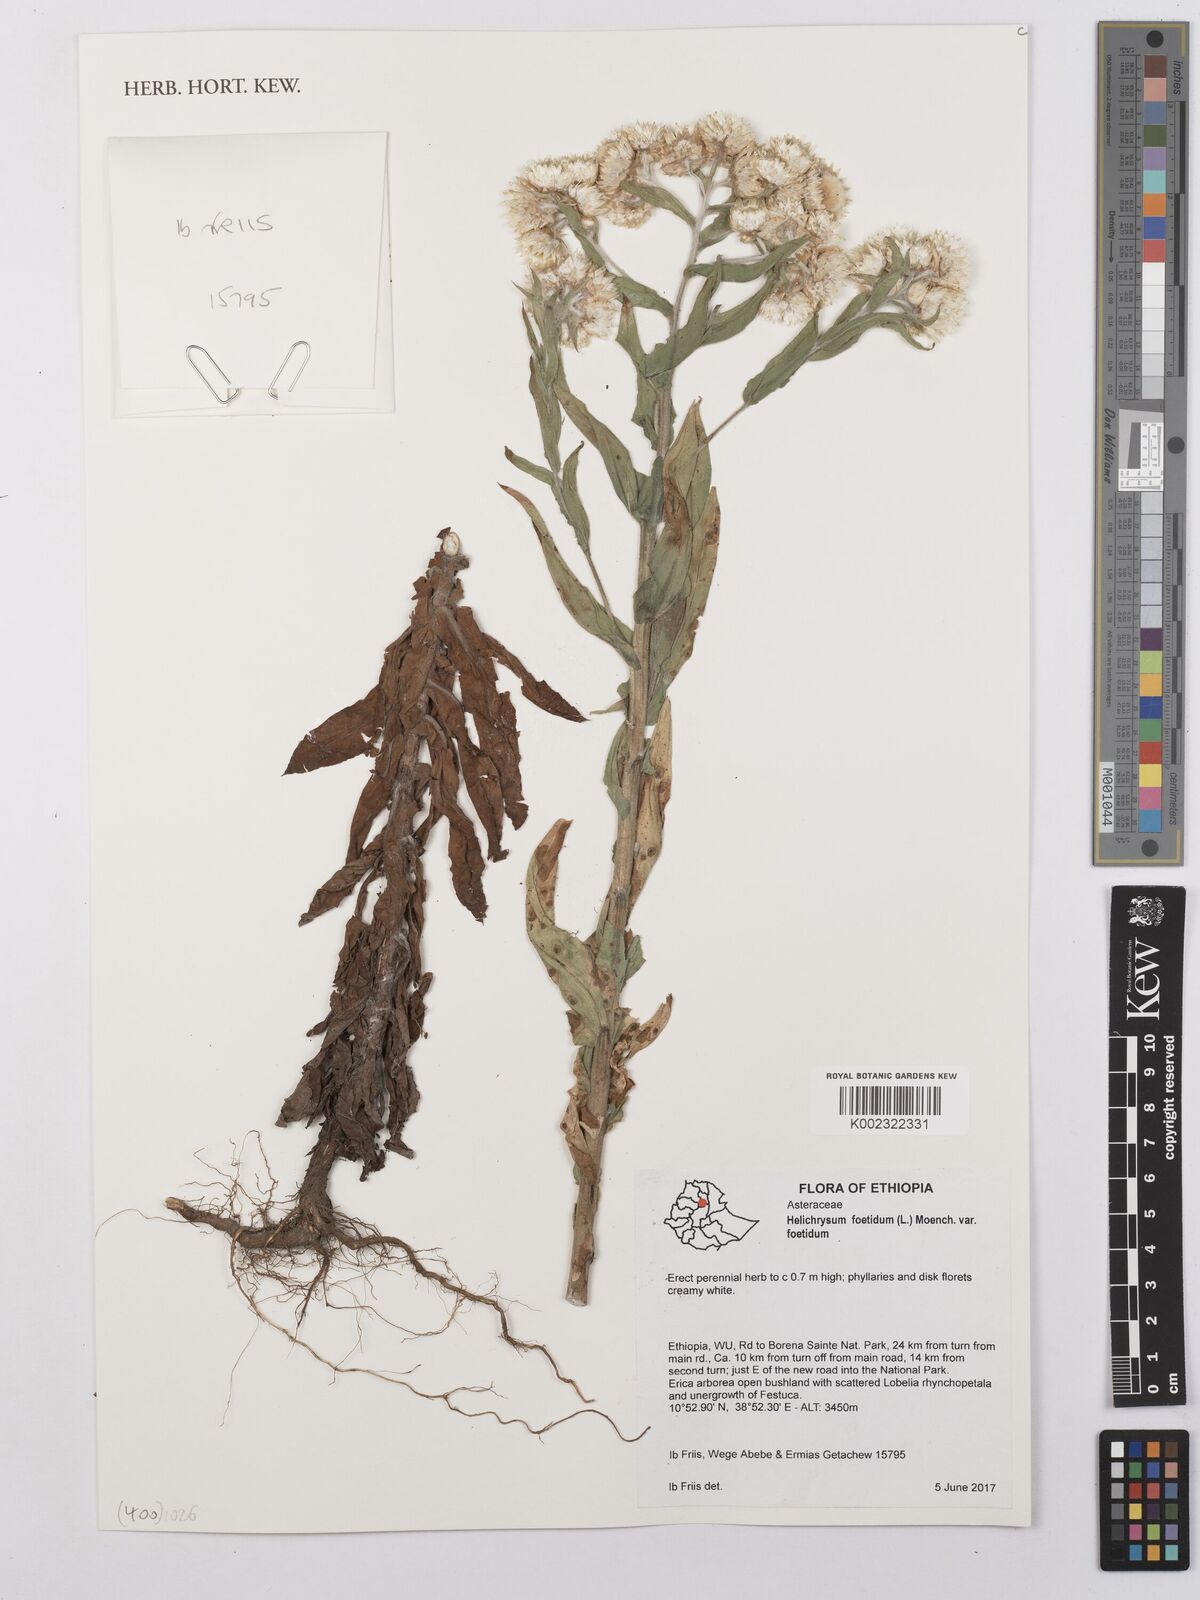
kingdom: Plantae
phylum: Tracheophyta
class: Magnoliopsida
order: Asterales
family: Asteraceae
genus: Helichrysum
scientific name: Helichrysum foetidum
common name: Stinking everlasting
